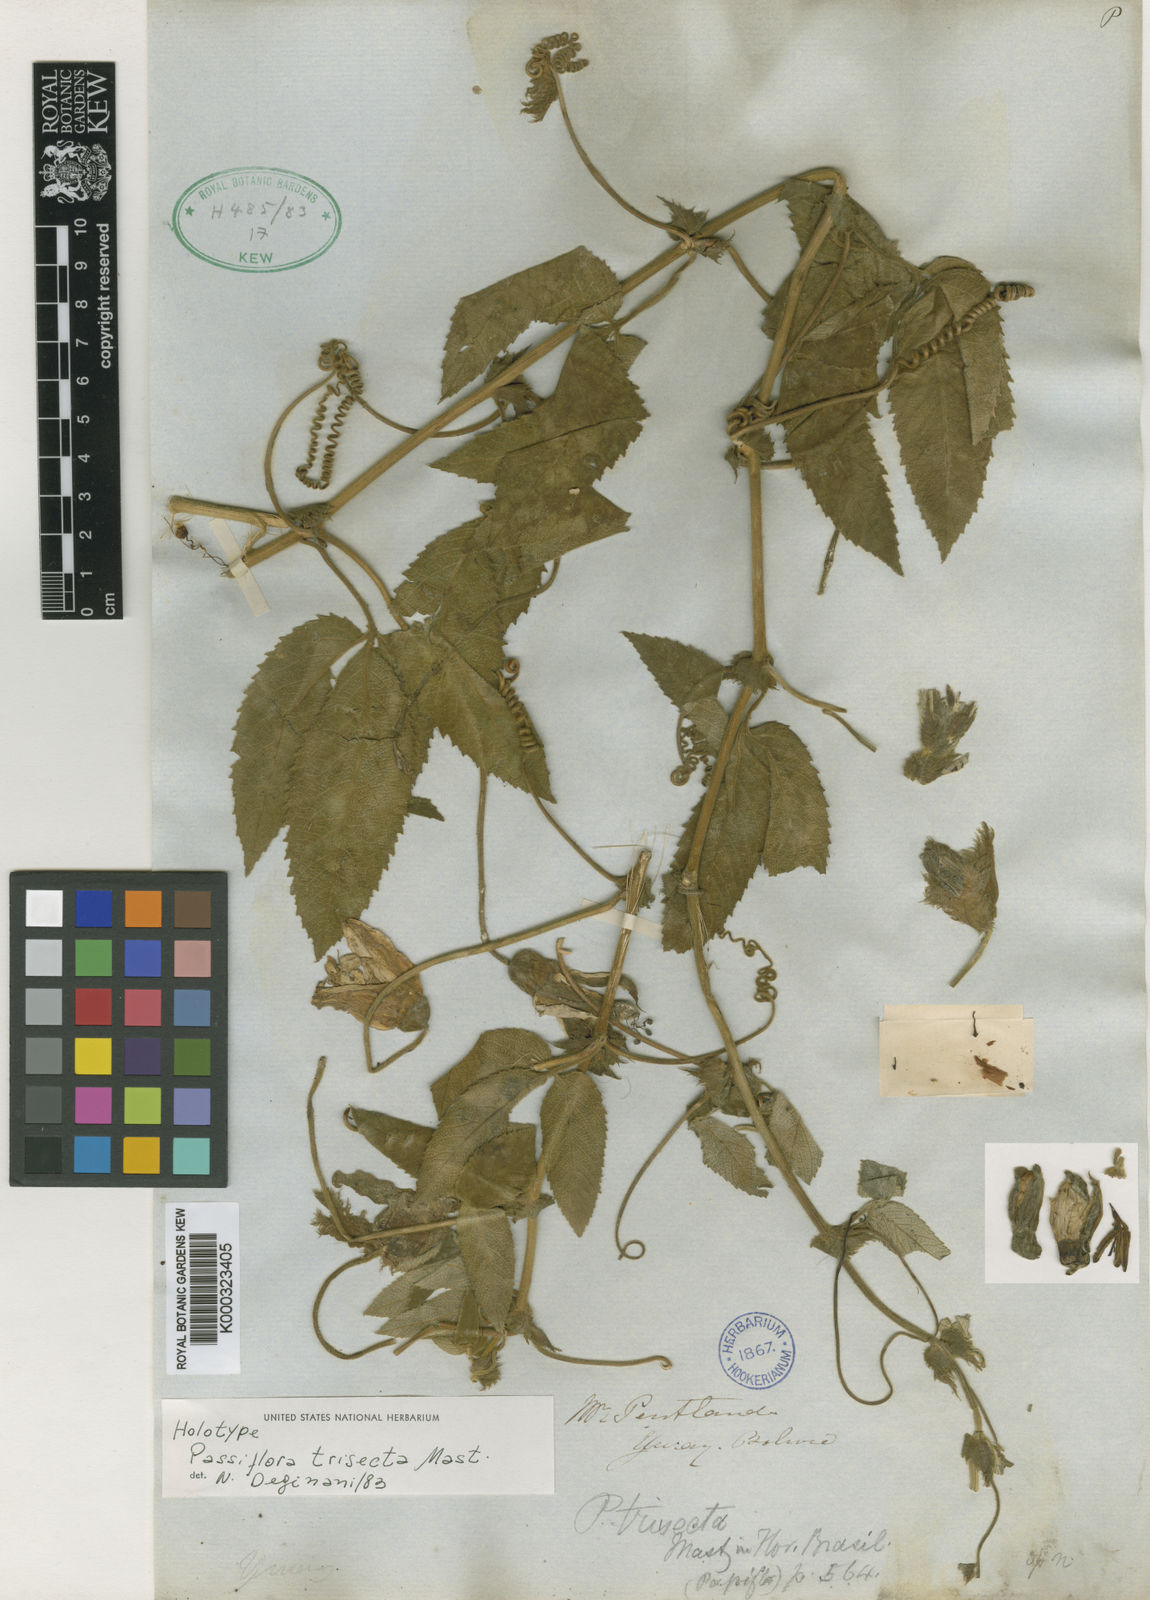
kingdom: Plantae
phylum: Tracheophyta
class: Magnoliopsida
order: Malpighiales
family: Passifloraceae
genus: Passiflora
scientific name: Passiflora trisecta
